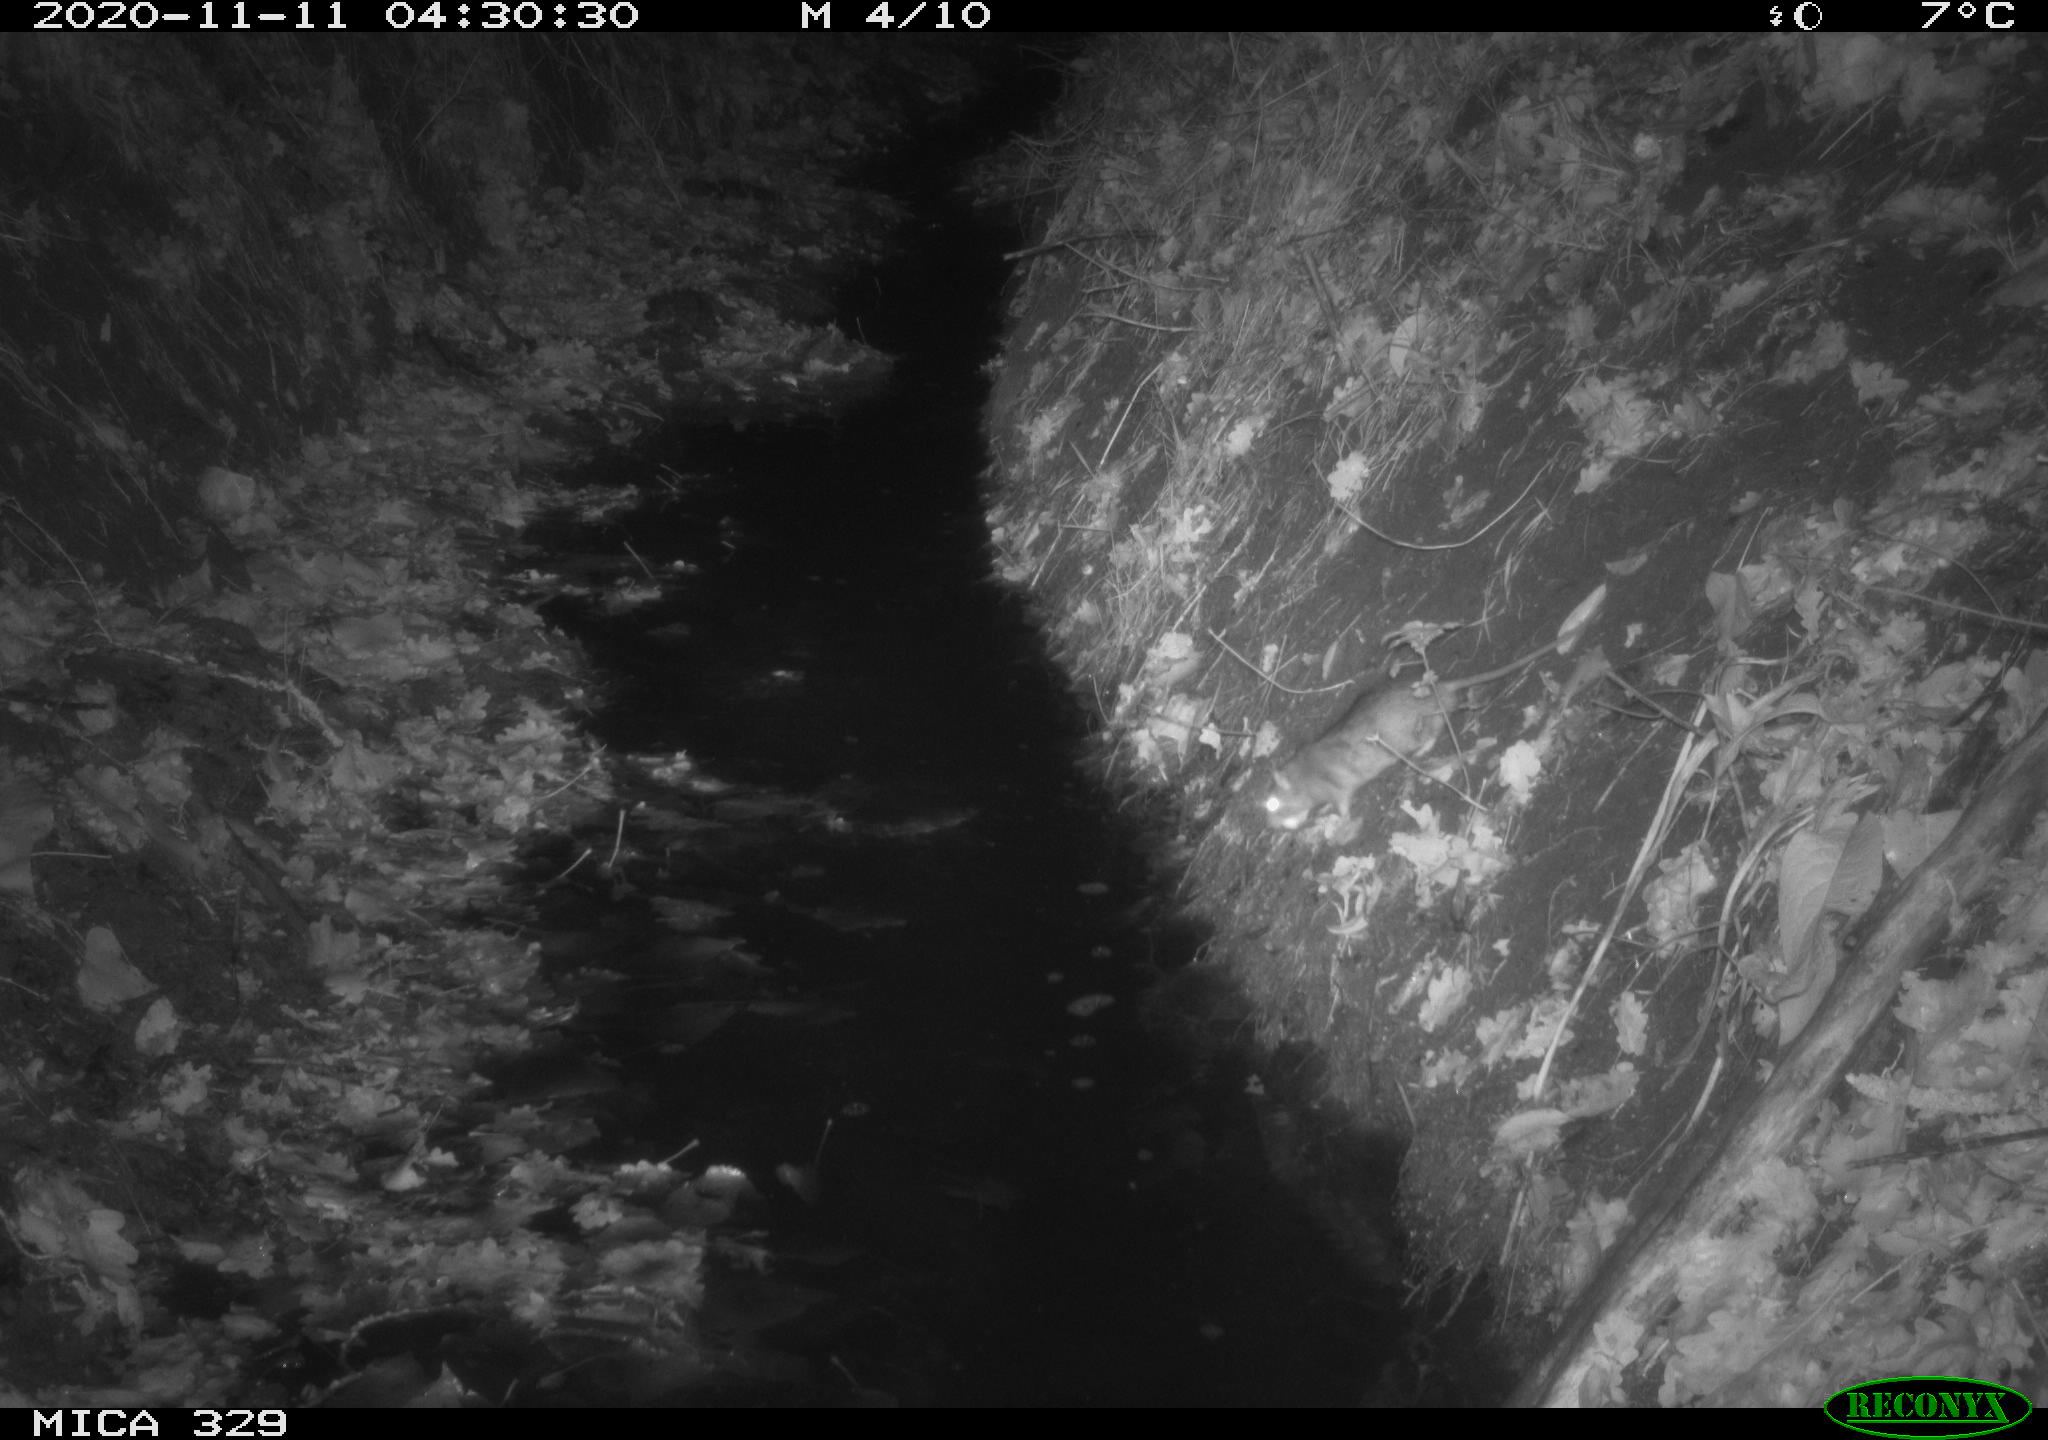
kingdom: Animalia
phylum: Chordata
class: Mammalia
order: Rodentia
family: Muridae
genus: Rattus
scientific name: Rattus norvegicus
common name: Brown rat
